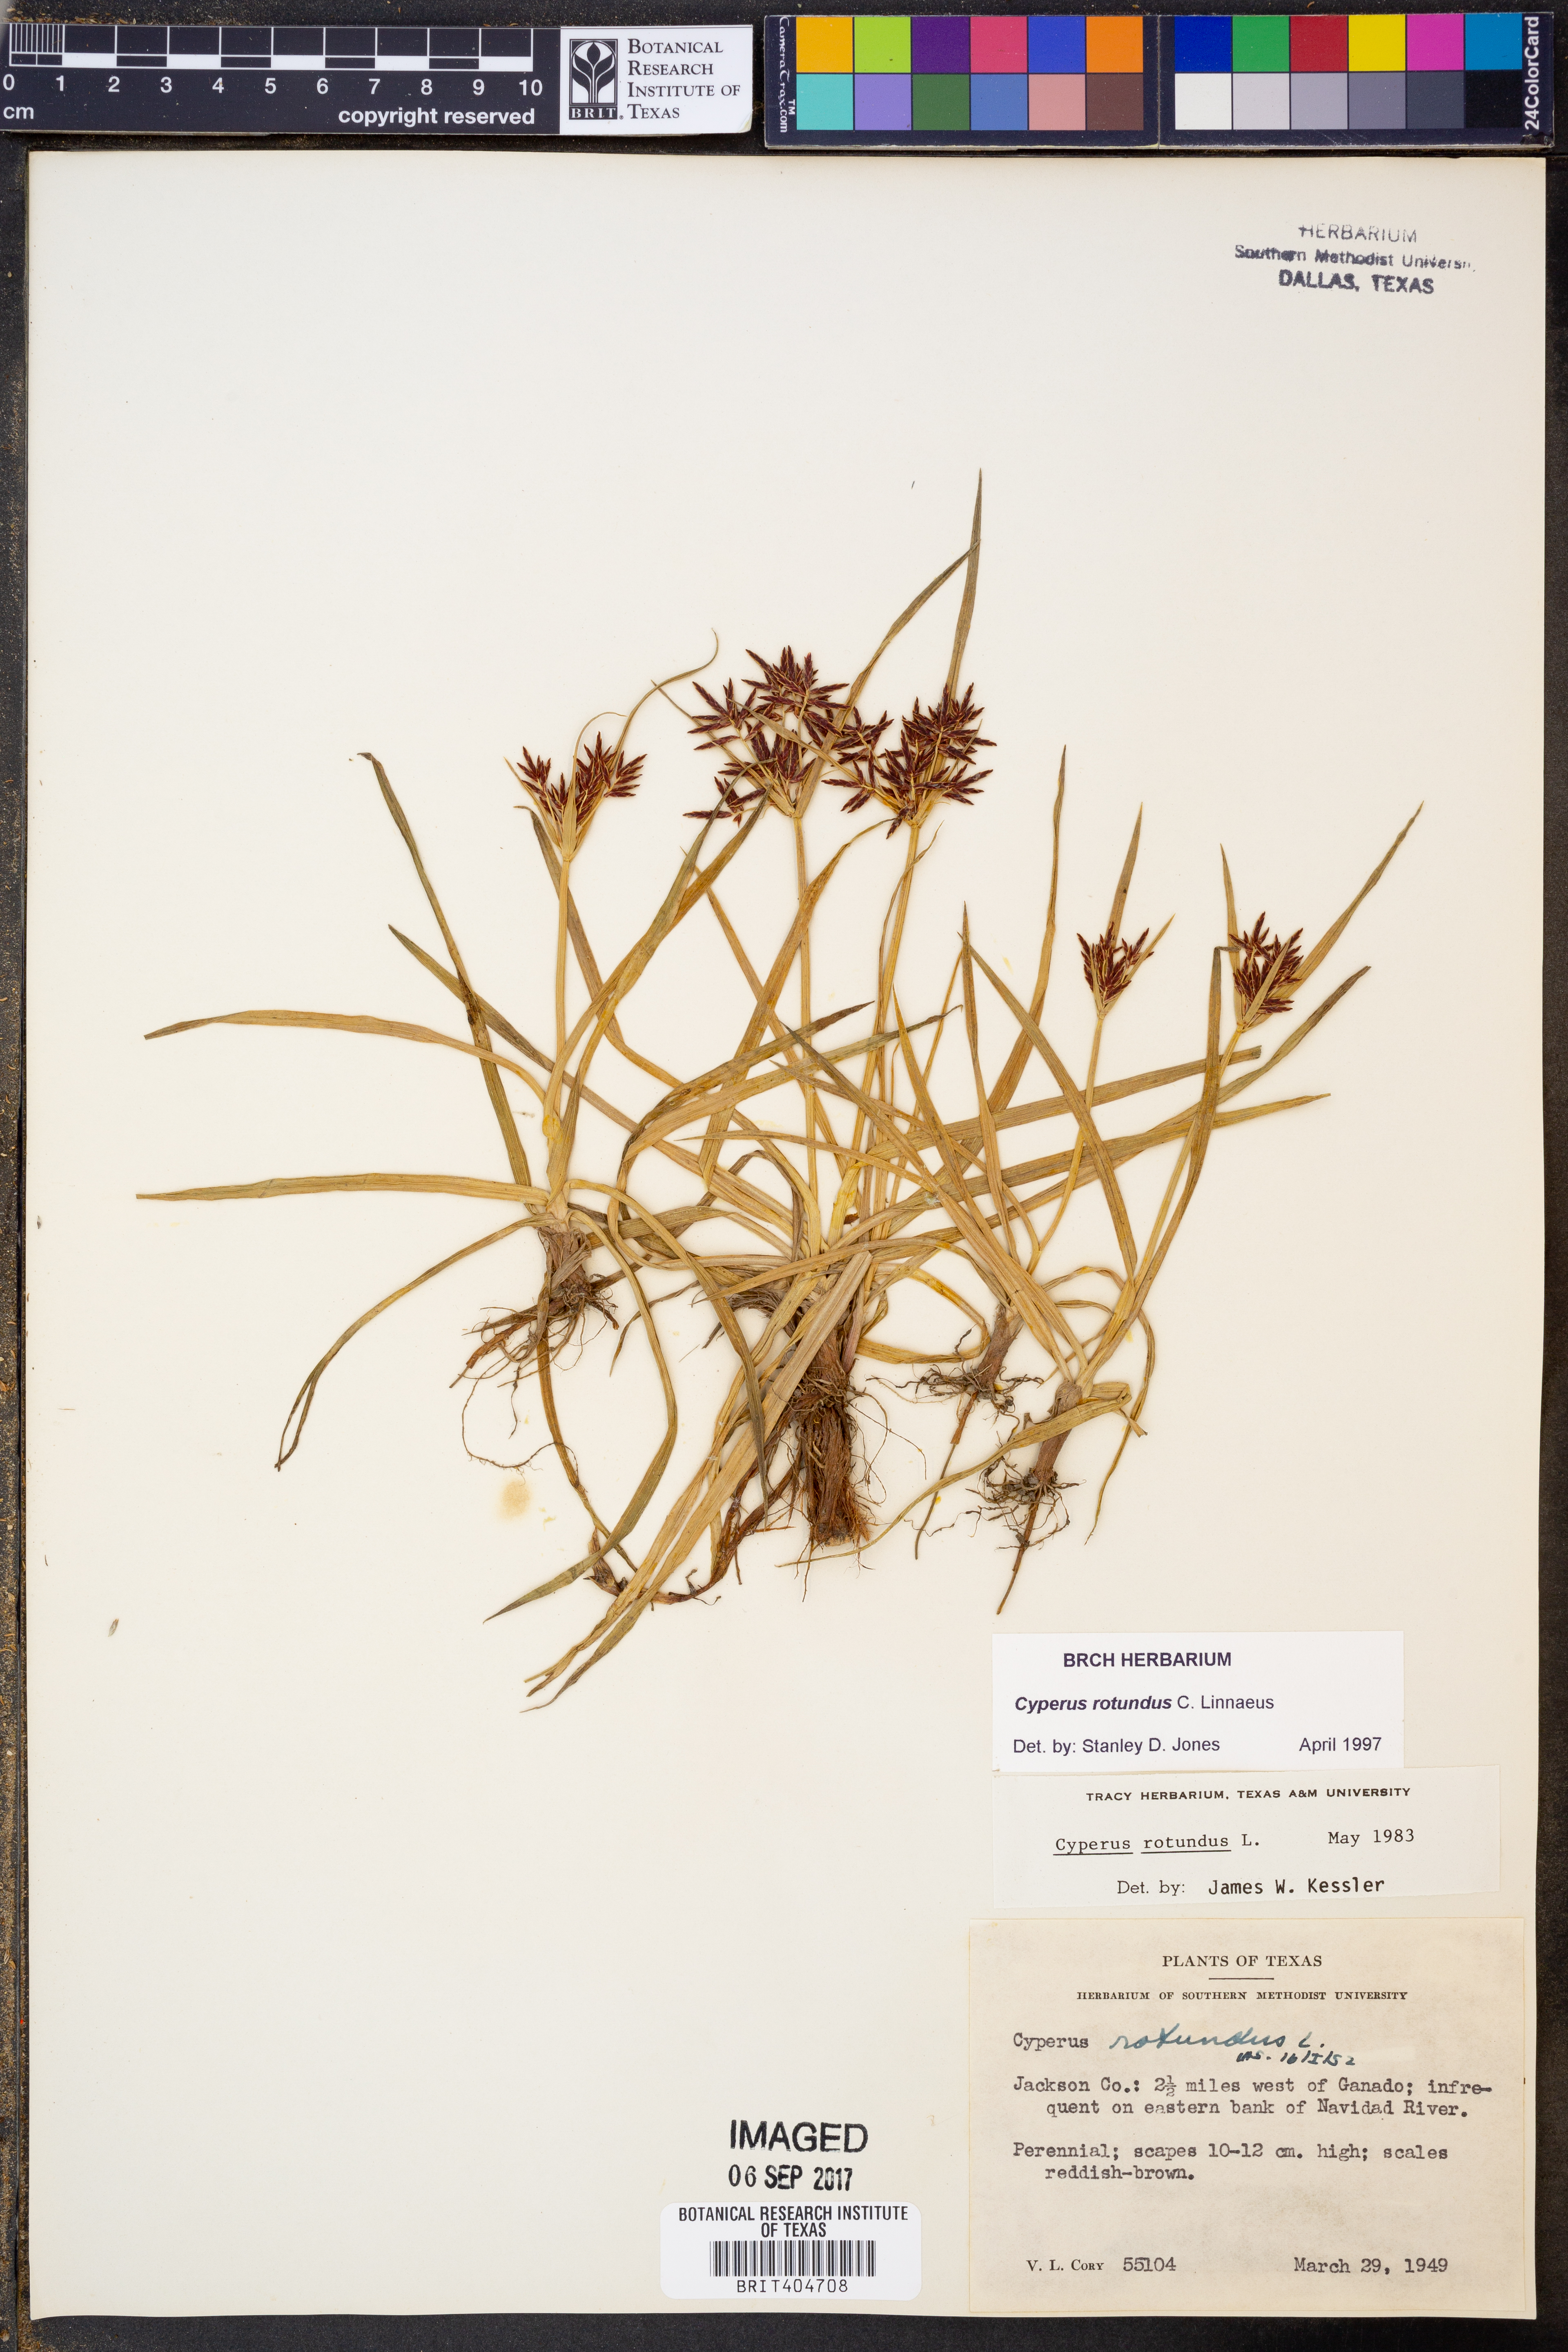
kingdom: Plantae
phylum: Tracheophyta
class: Liliopsida
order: Poales
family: Cyperaceae
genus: Cyperus
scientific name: Cyperus rotundus
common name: Nutgrass
